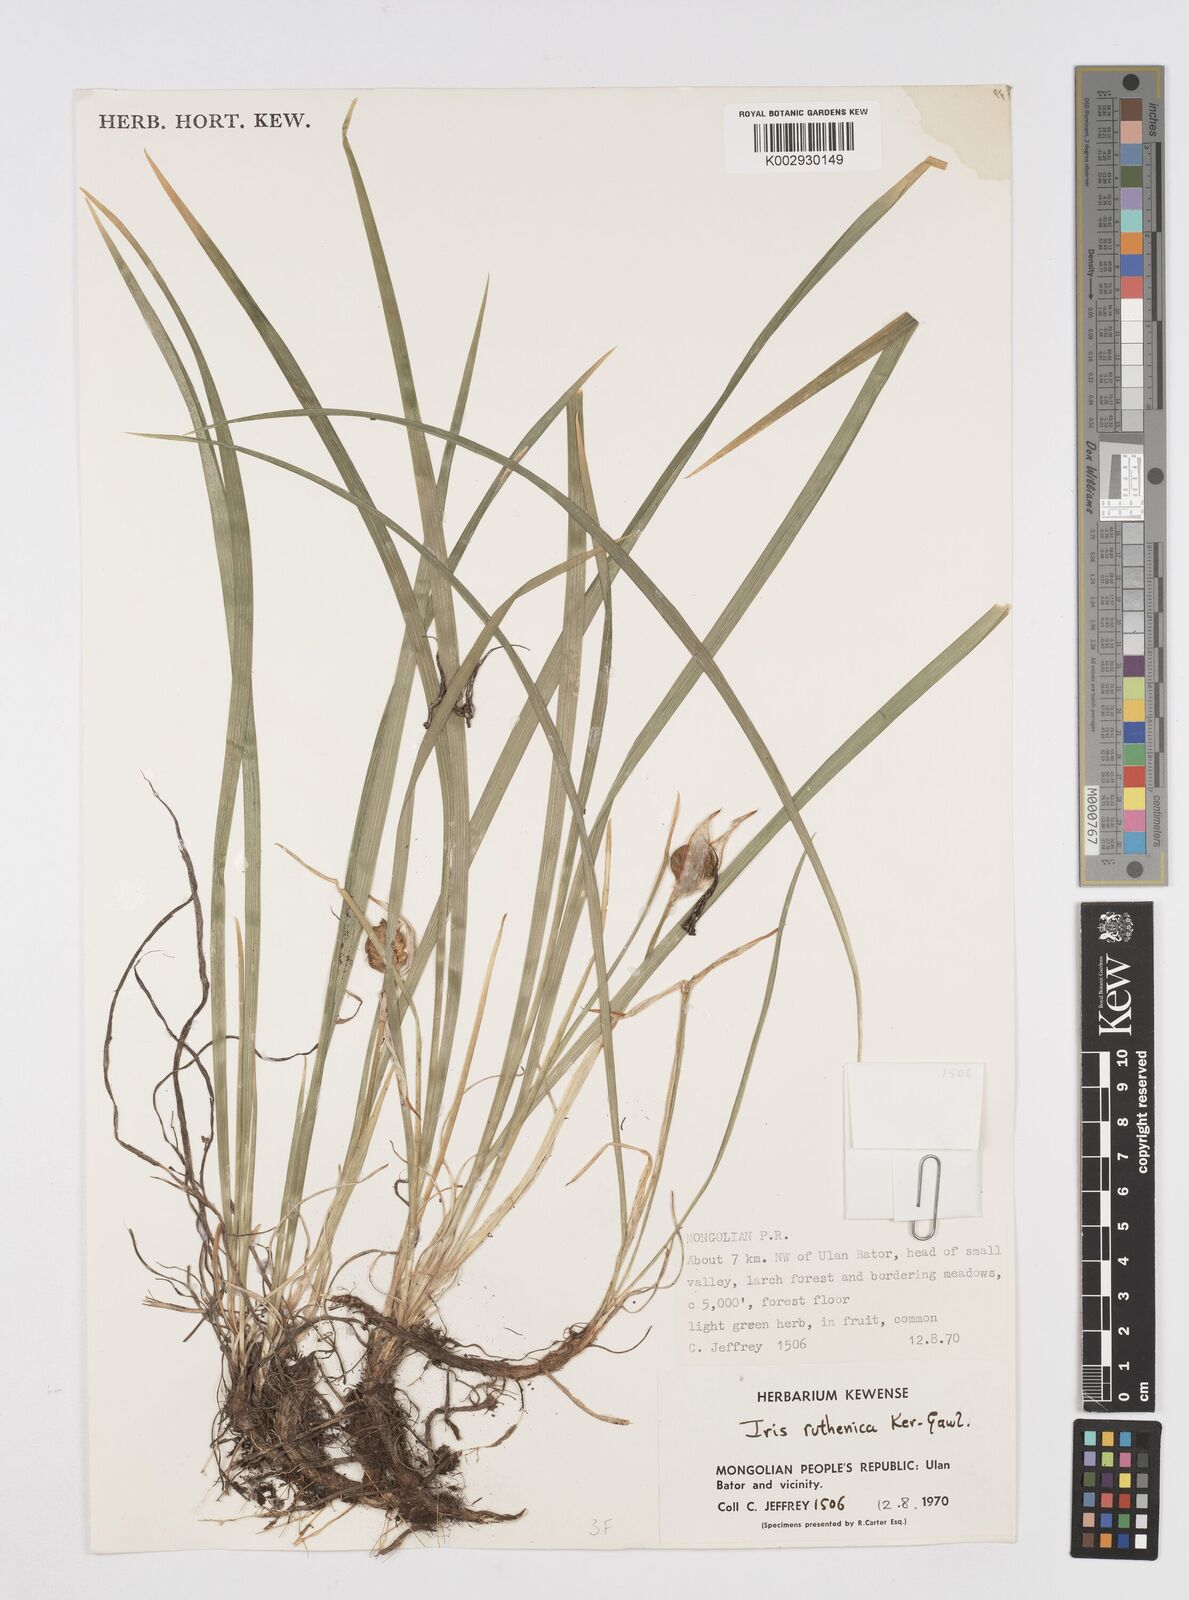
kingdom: Plantae
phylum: Tracheophyta
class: Liliopsida
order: Asparagales
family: Iridaceae
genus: Iris
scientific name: Iris ruthenica
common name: Purple-bract iris
